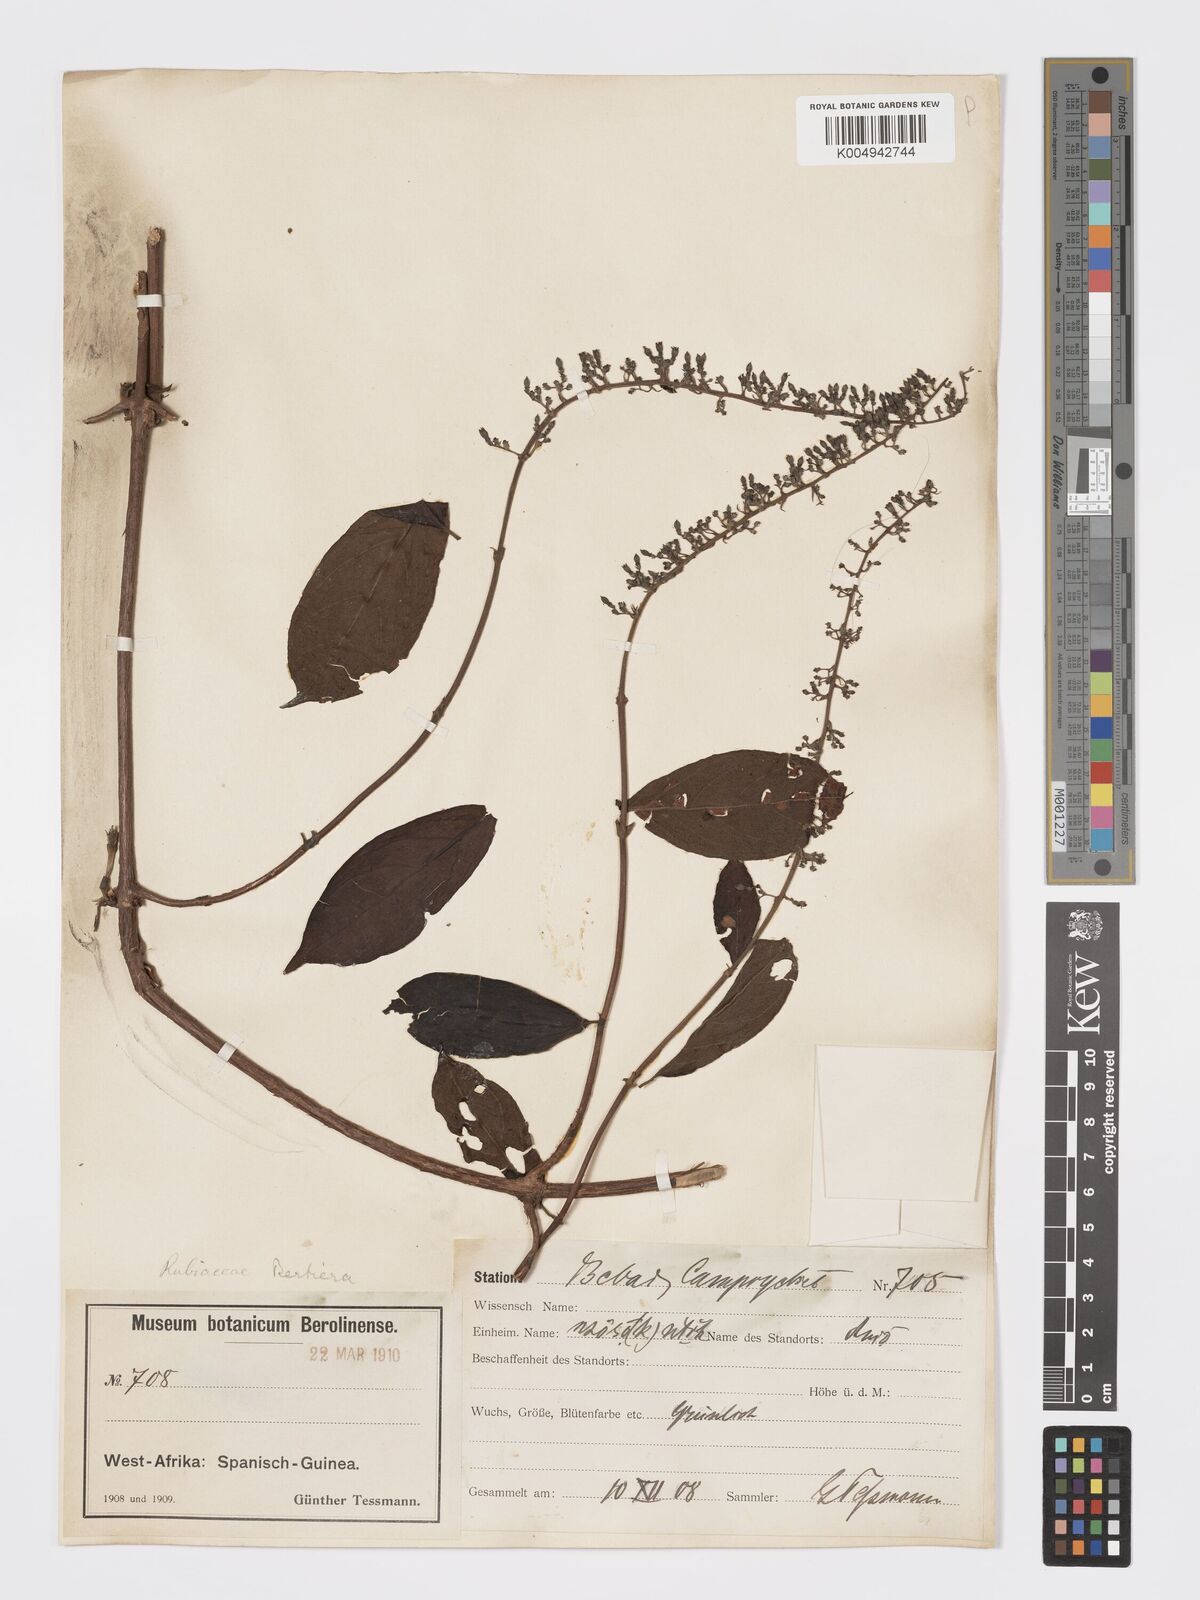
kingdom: Plantae
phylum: Tracheophyta
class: Magnoliopsida
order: Gentianales
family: Rubiaceae
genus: Bertiera
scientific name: Bertiera bracteolata
